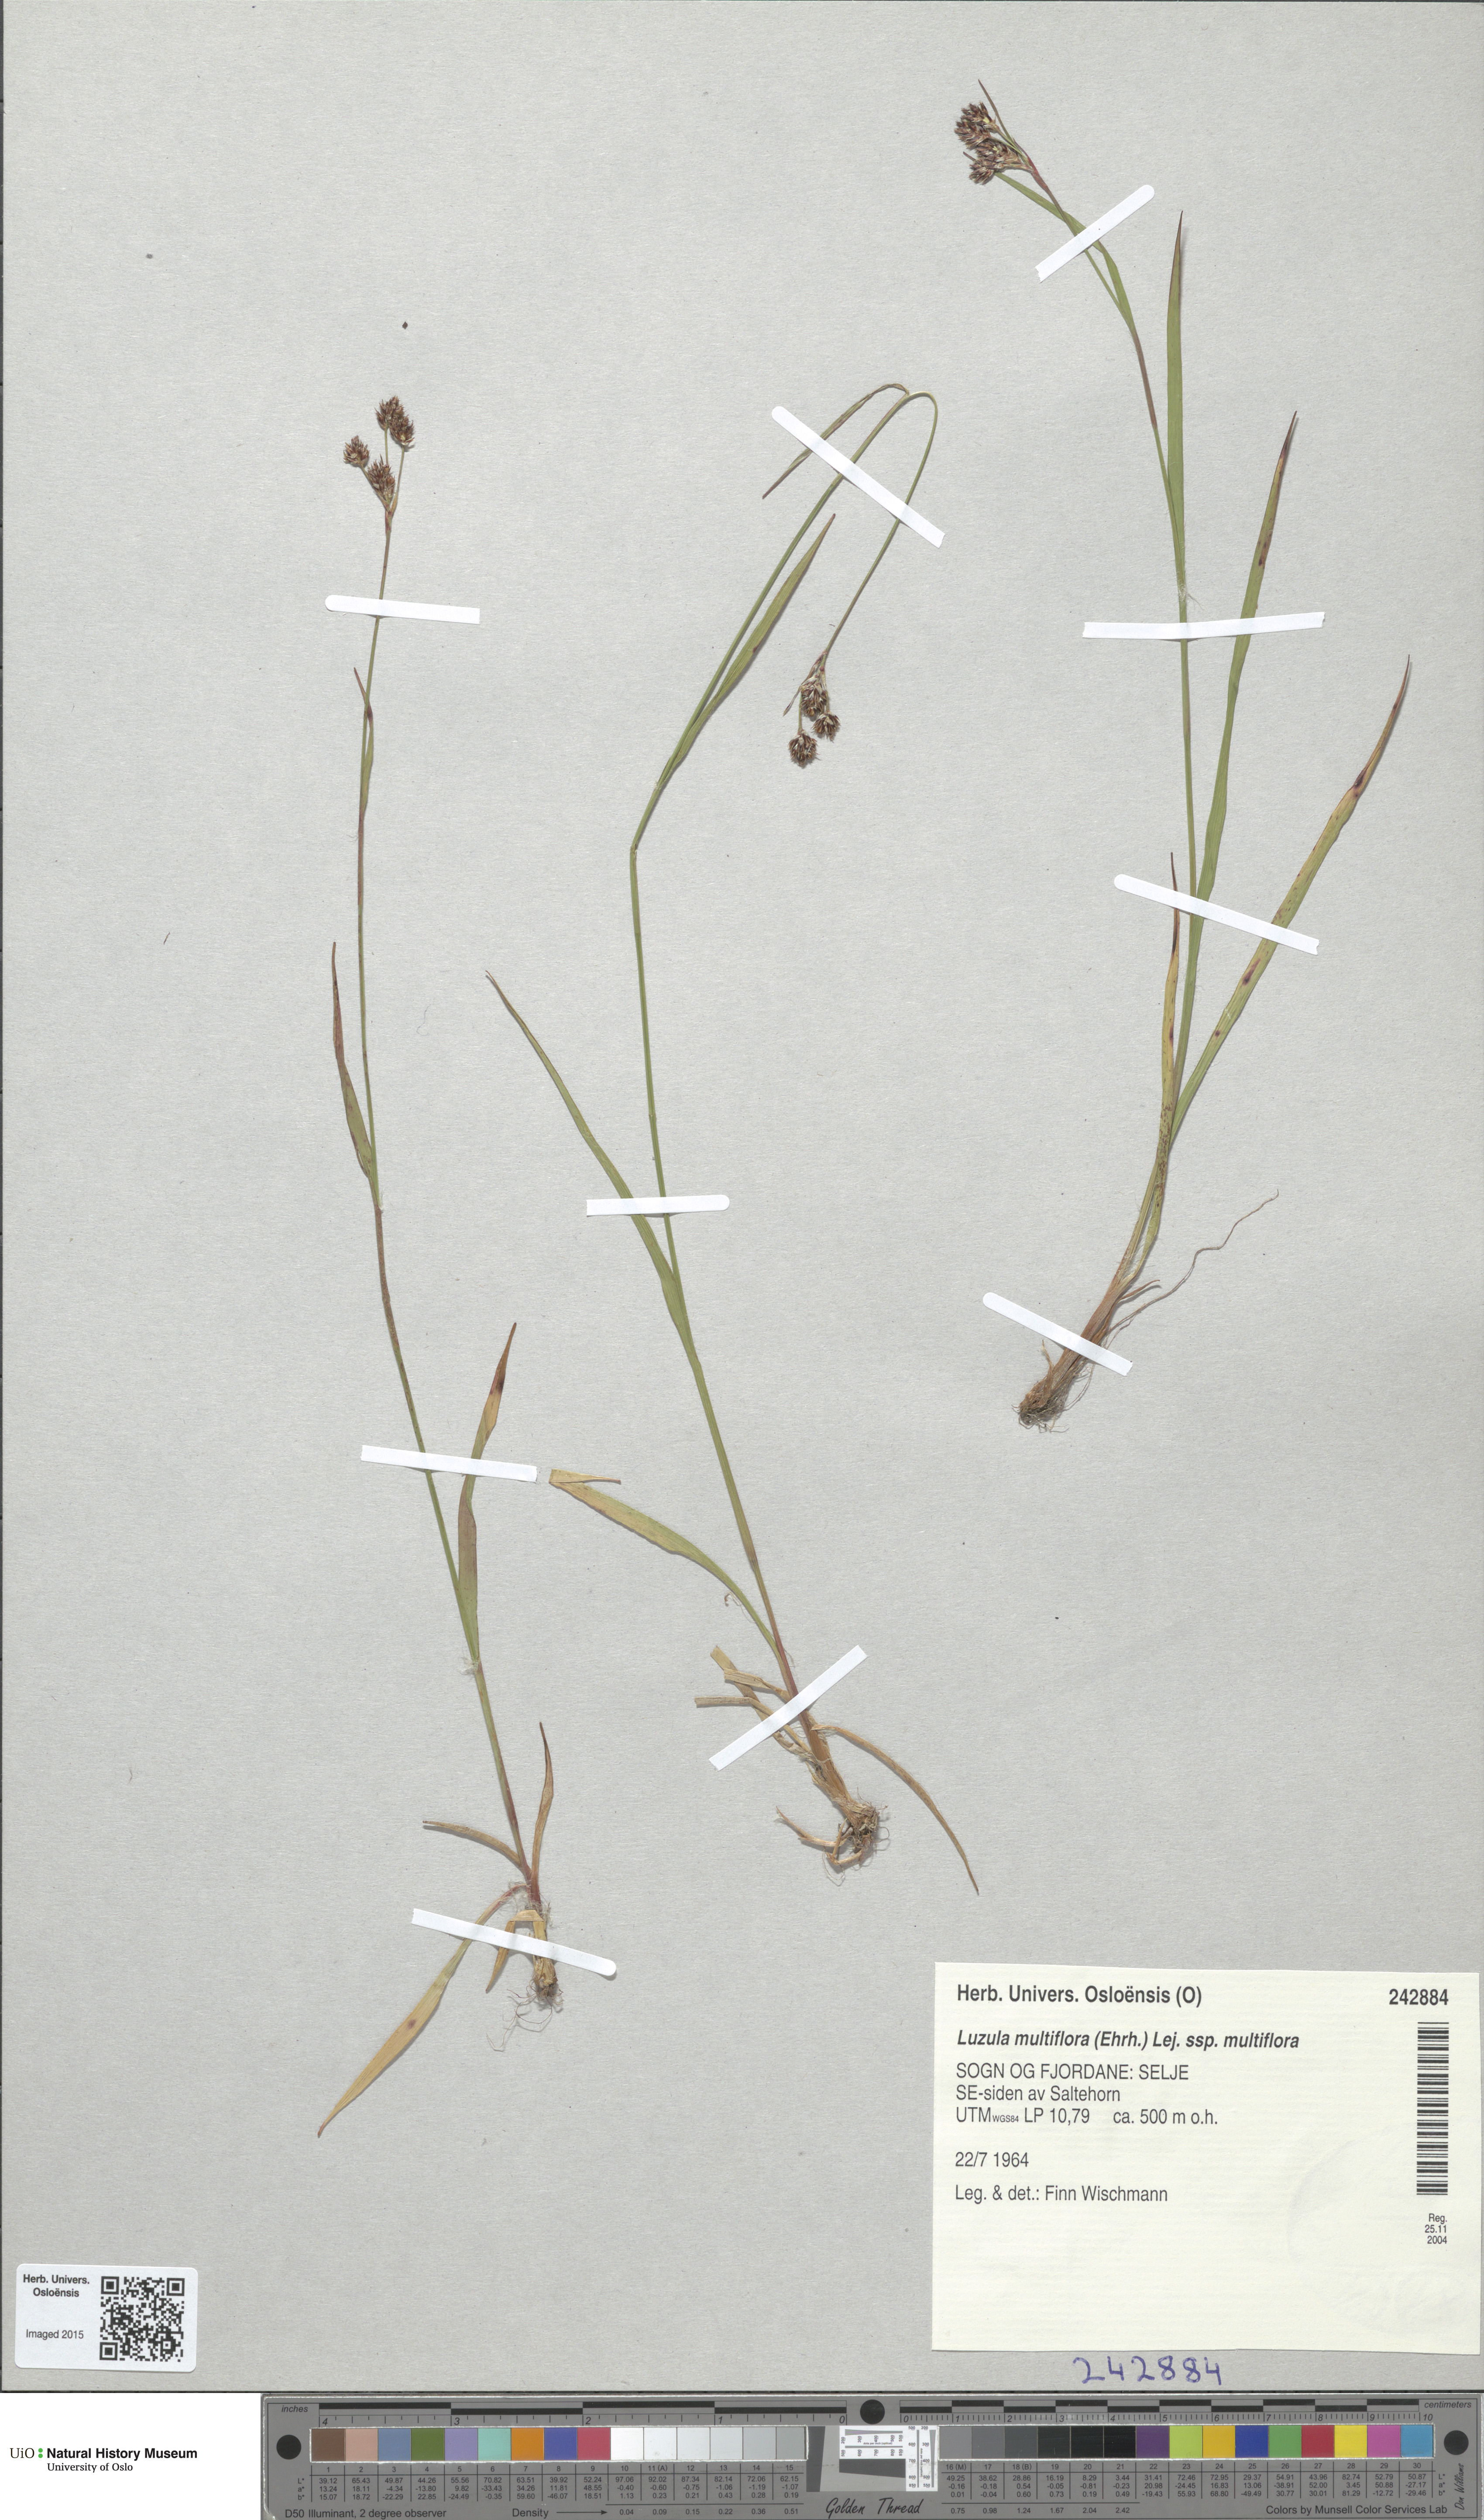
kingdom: Plantae
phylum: Tracheophyta
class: Liliopsida
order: Poales
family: Juncaceae
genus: Luzula
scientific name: Luzula multiflora
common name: Heath wood-rush
